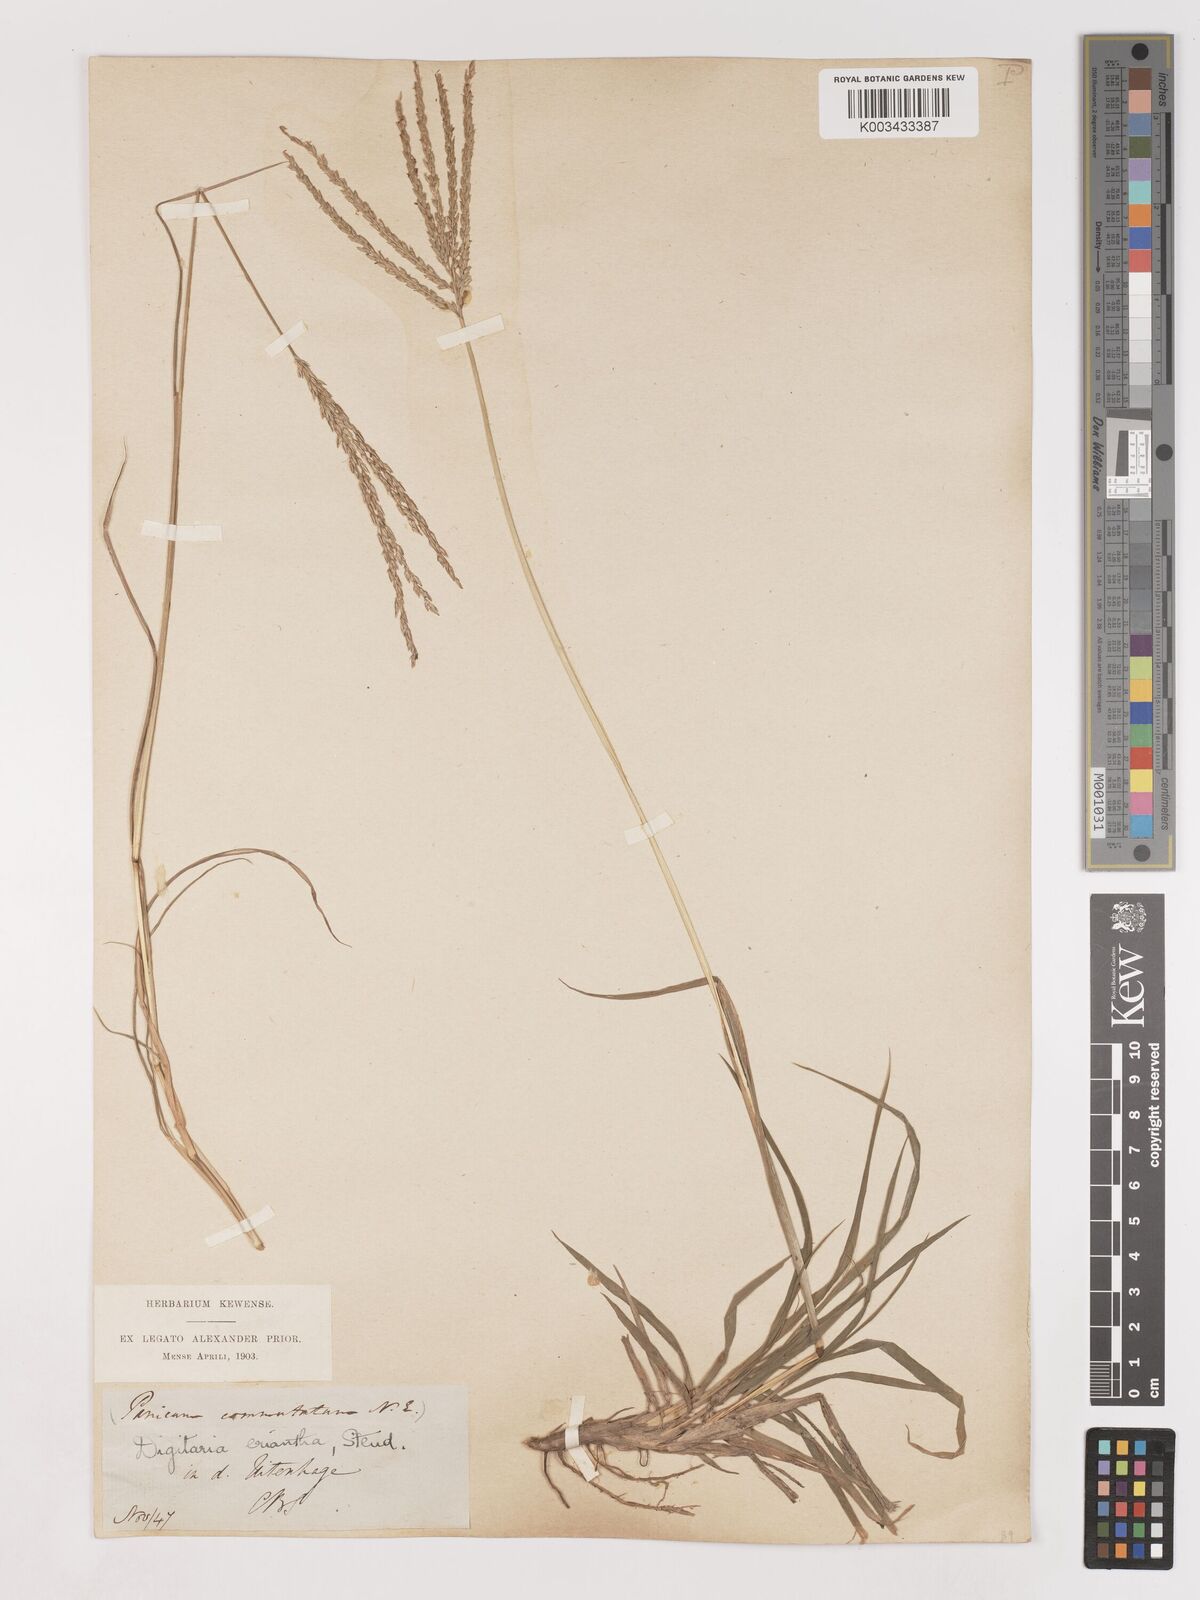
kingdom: Plantae
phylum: Tracheophyta
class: Liliopsida
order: Poales
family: Poaceae
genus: Digitaria
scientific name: Digitaria eriantha
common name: Digitgrass
